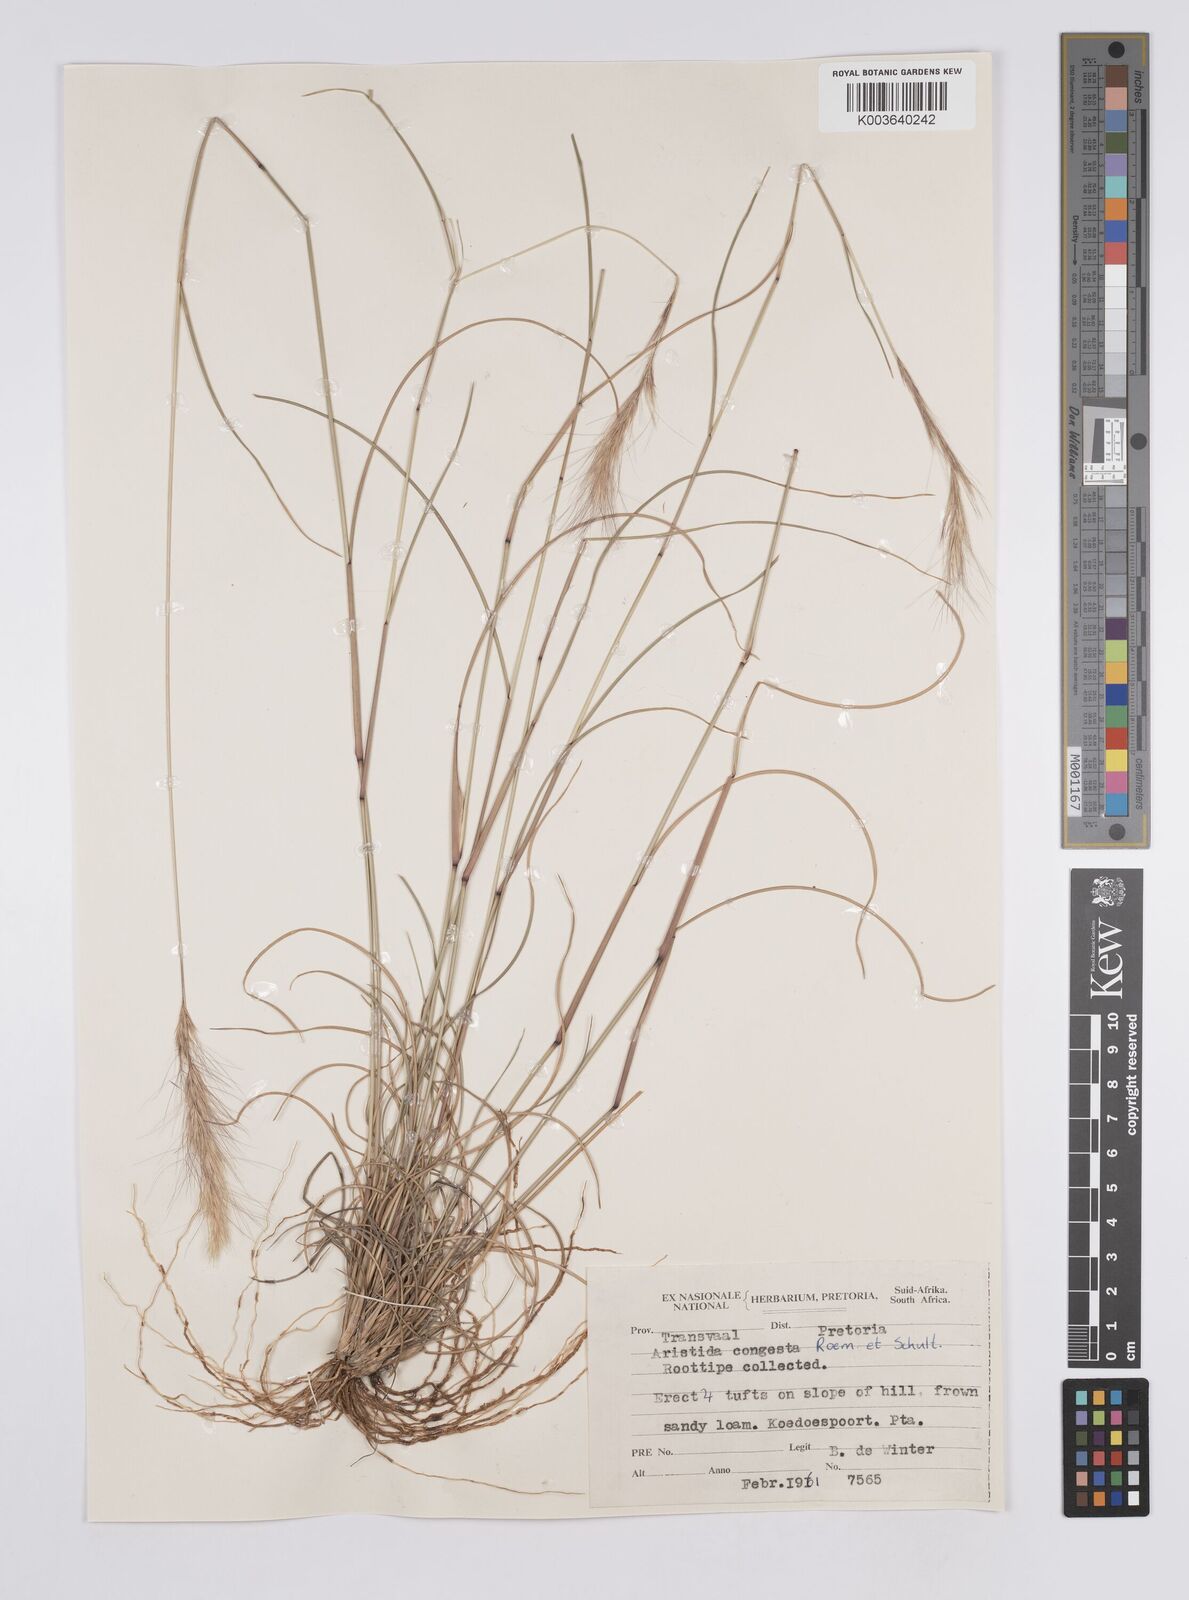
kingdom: Plantae
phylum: Tracheophyta
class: Liliopsida
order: Poales
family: Poaceae
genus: Aristida
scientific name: Aristida congesta
